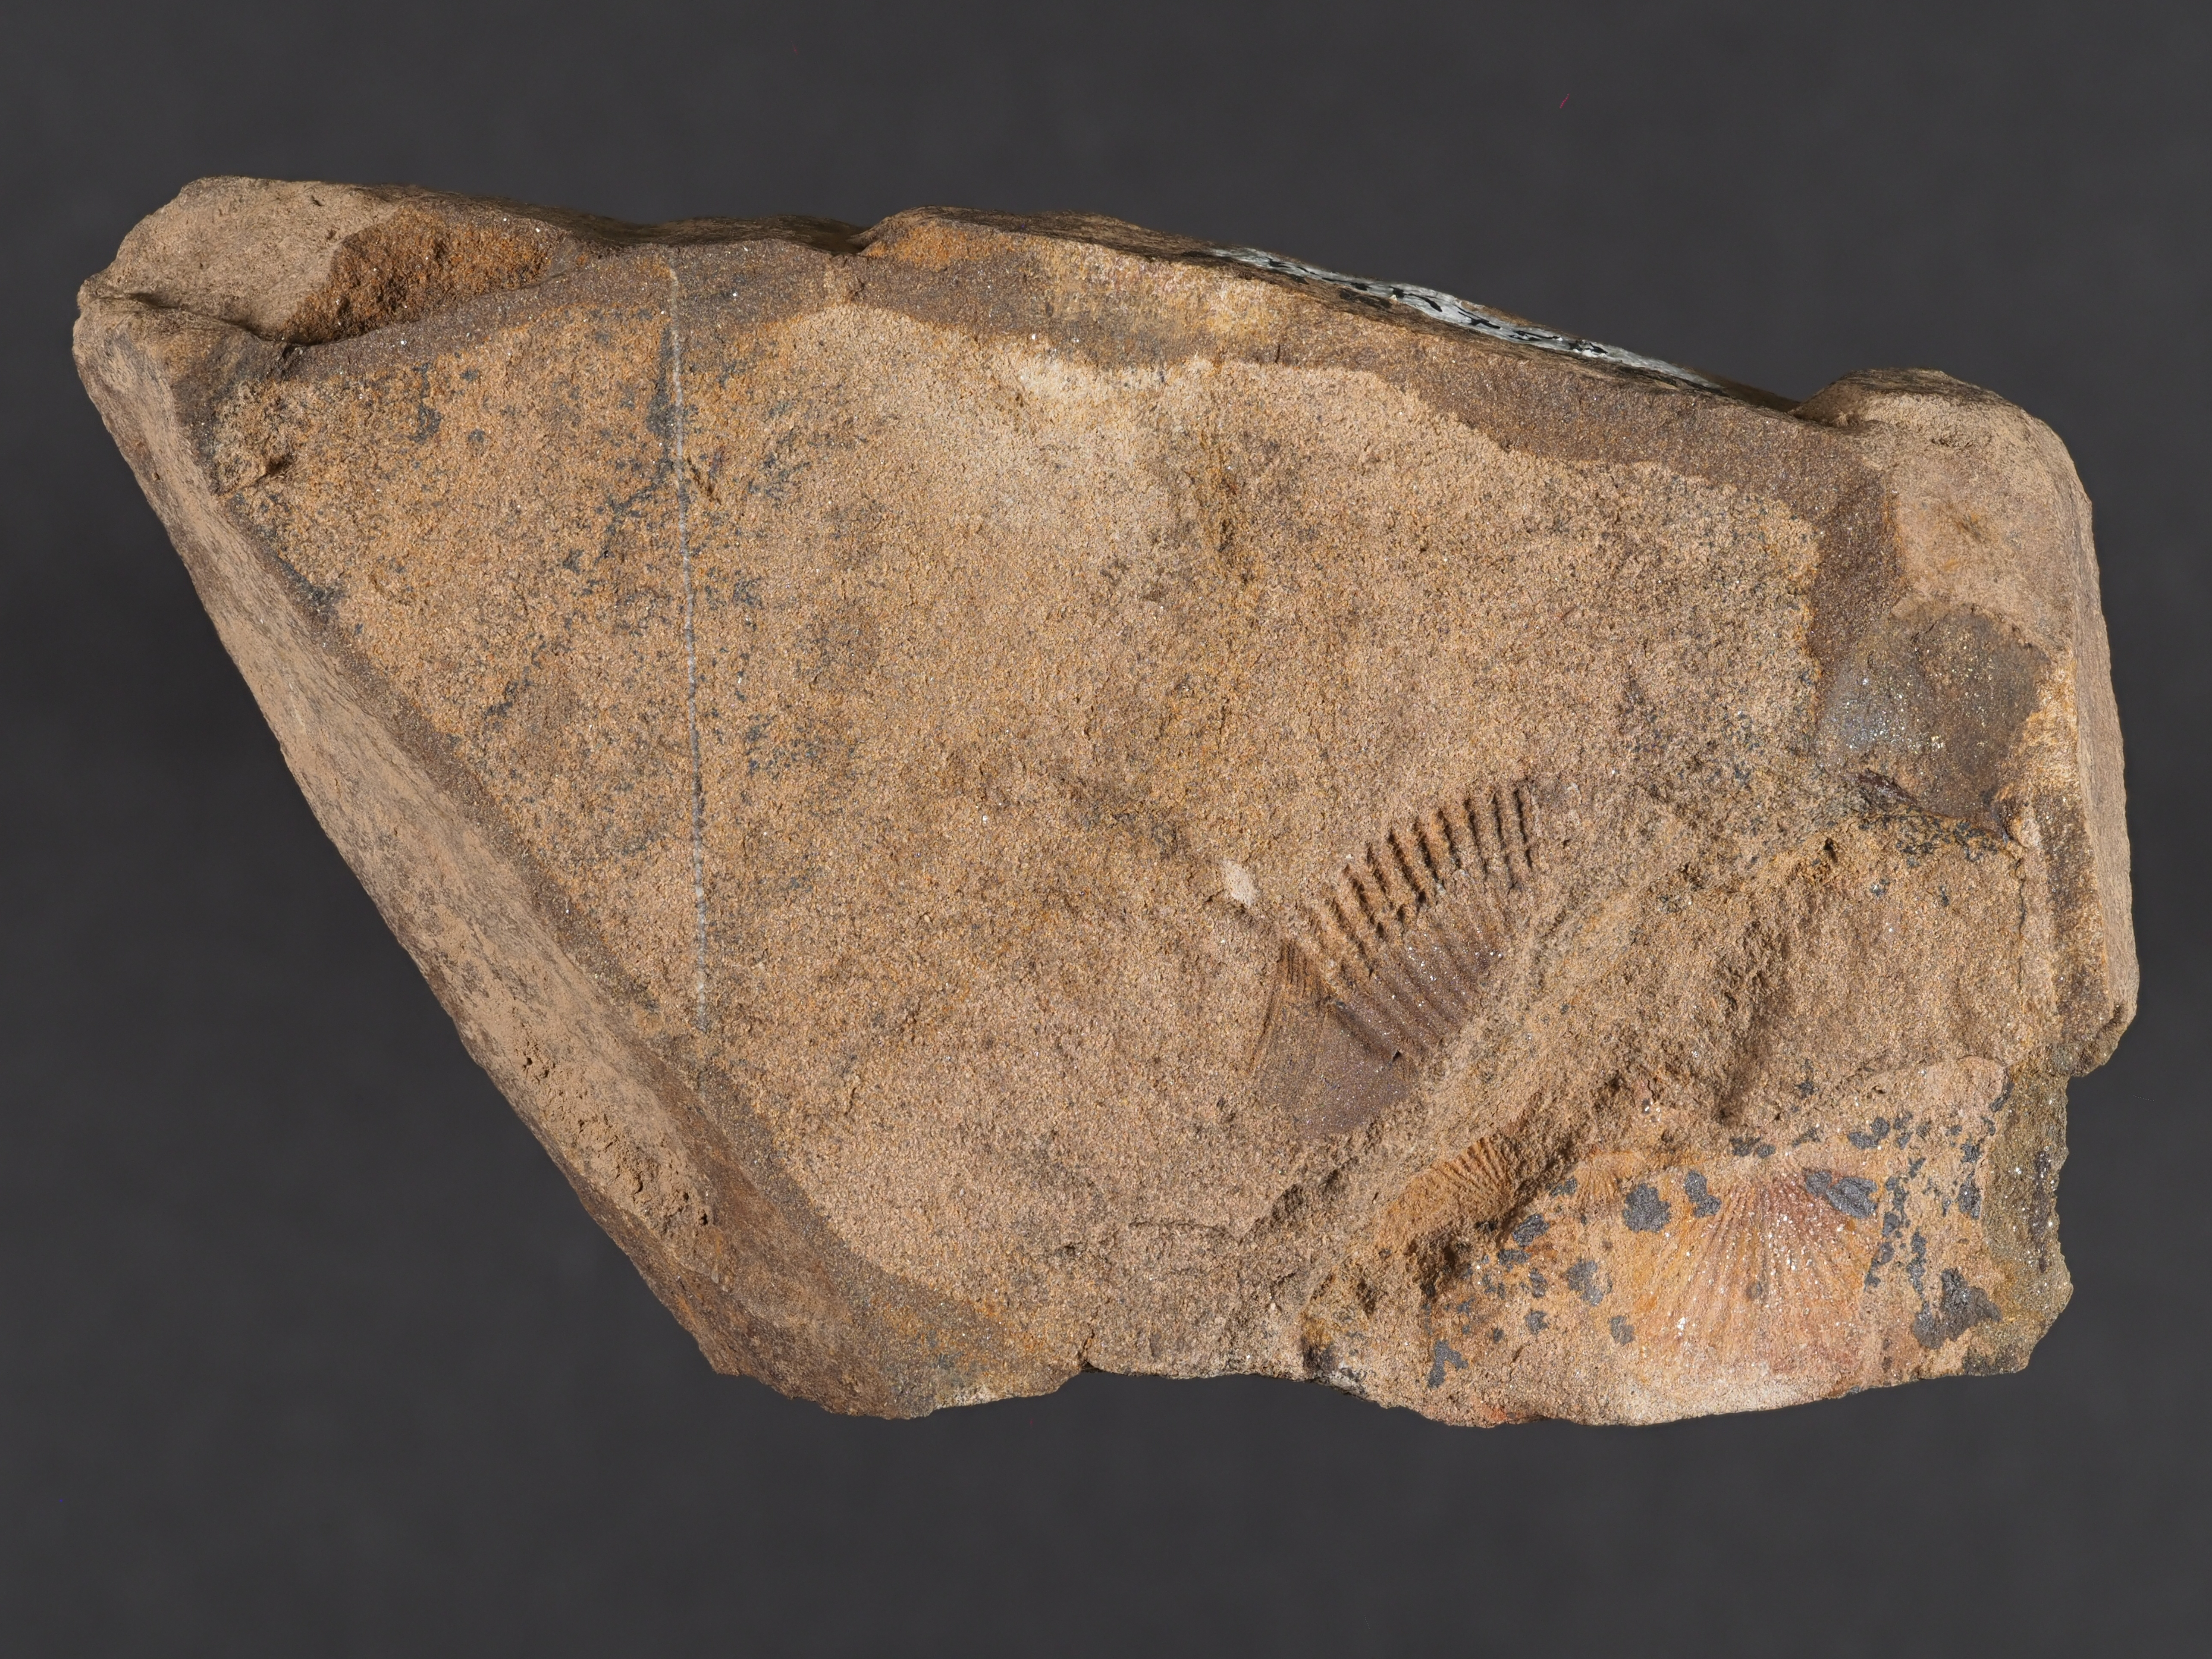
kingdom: Animalia
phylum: Mollusca
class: Bivalvia
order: Modiomorphida
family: Modiomorphidae
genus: Goniophora
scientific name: Goniophora
